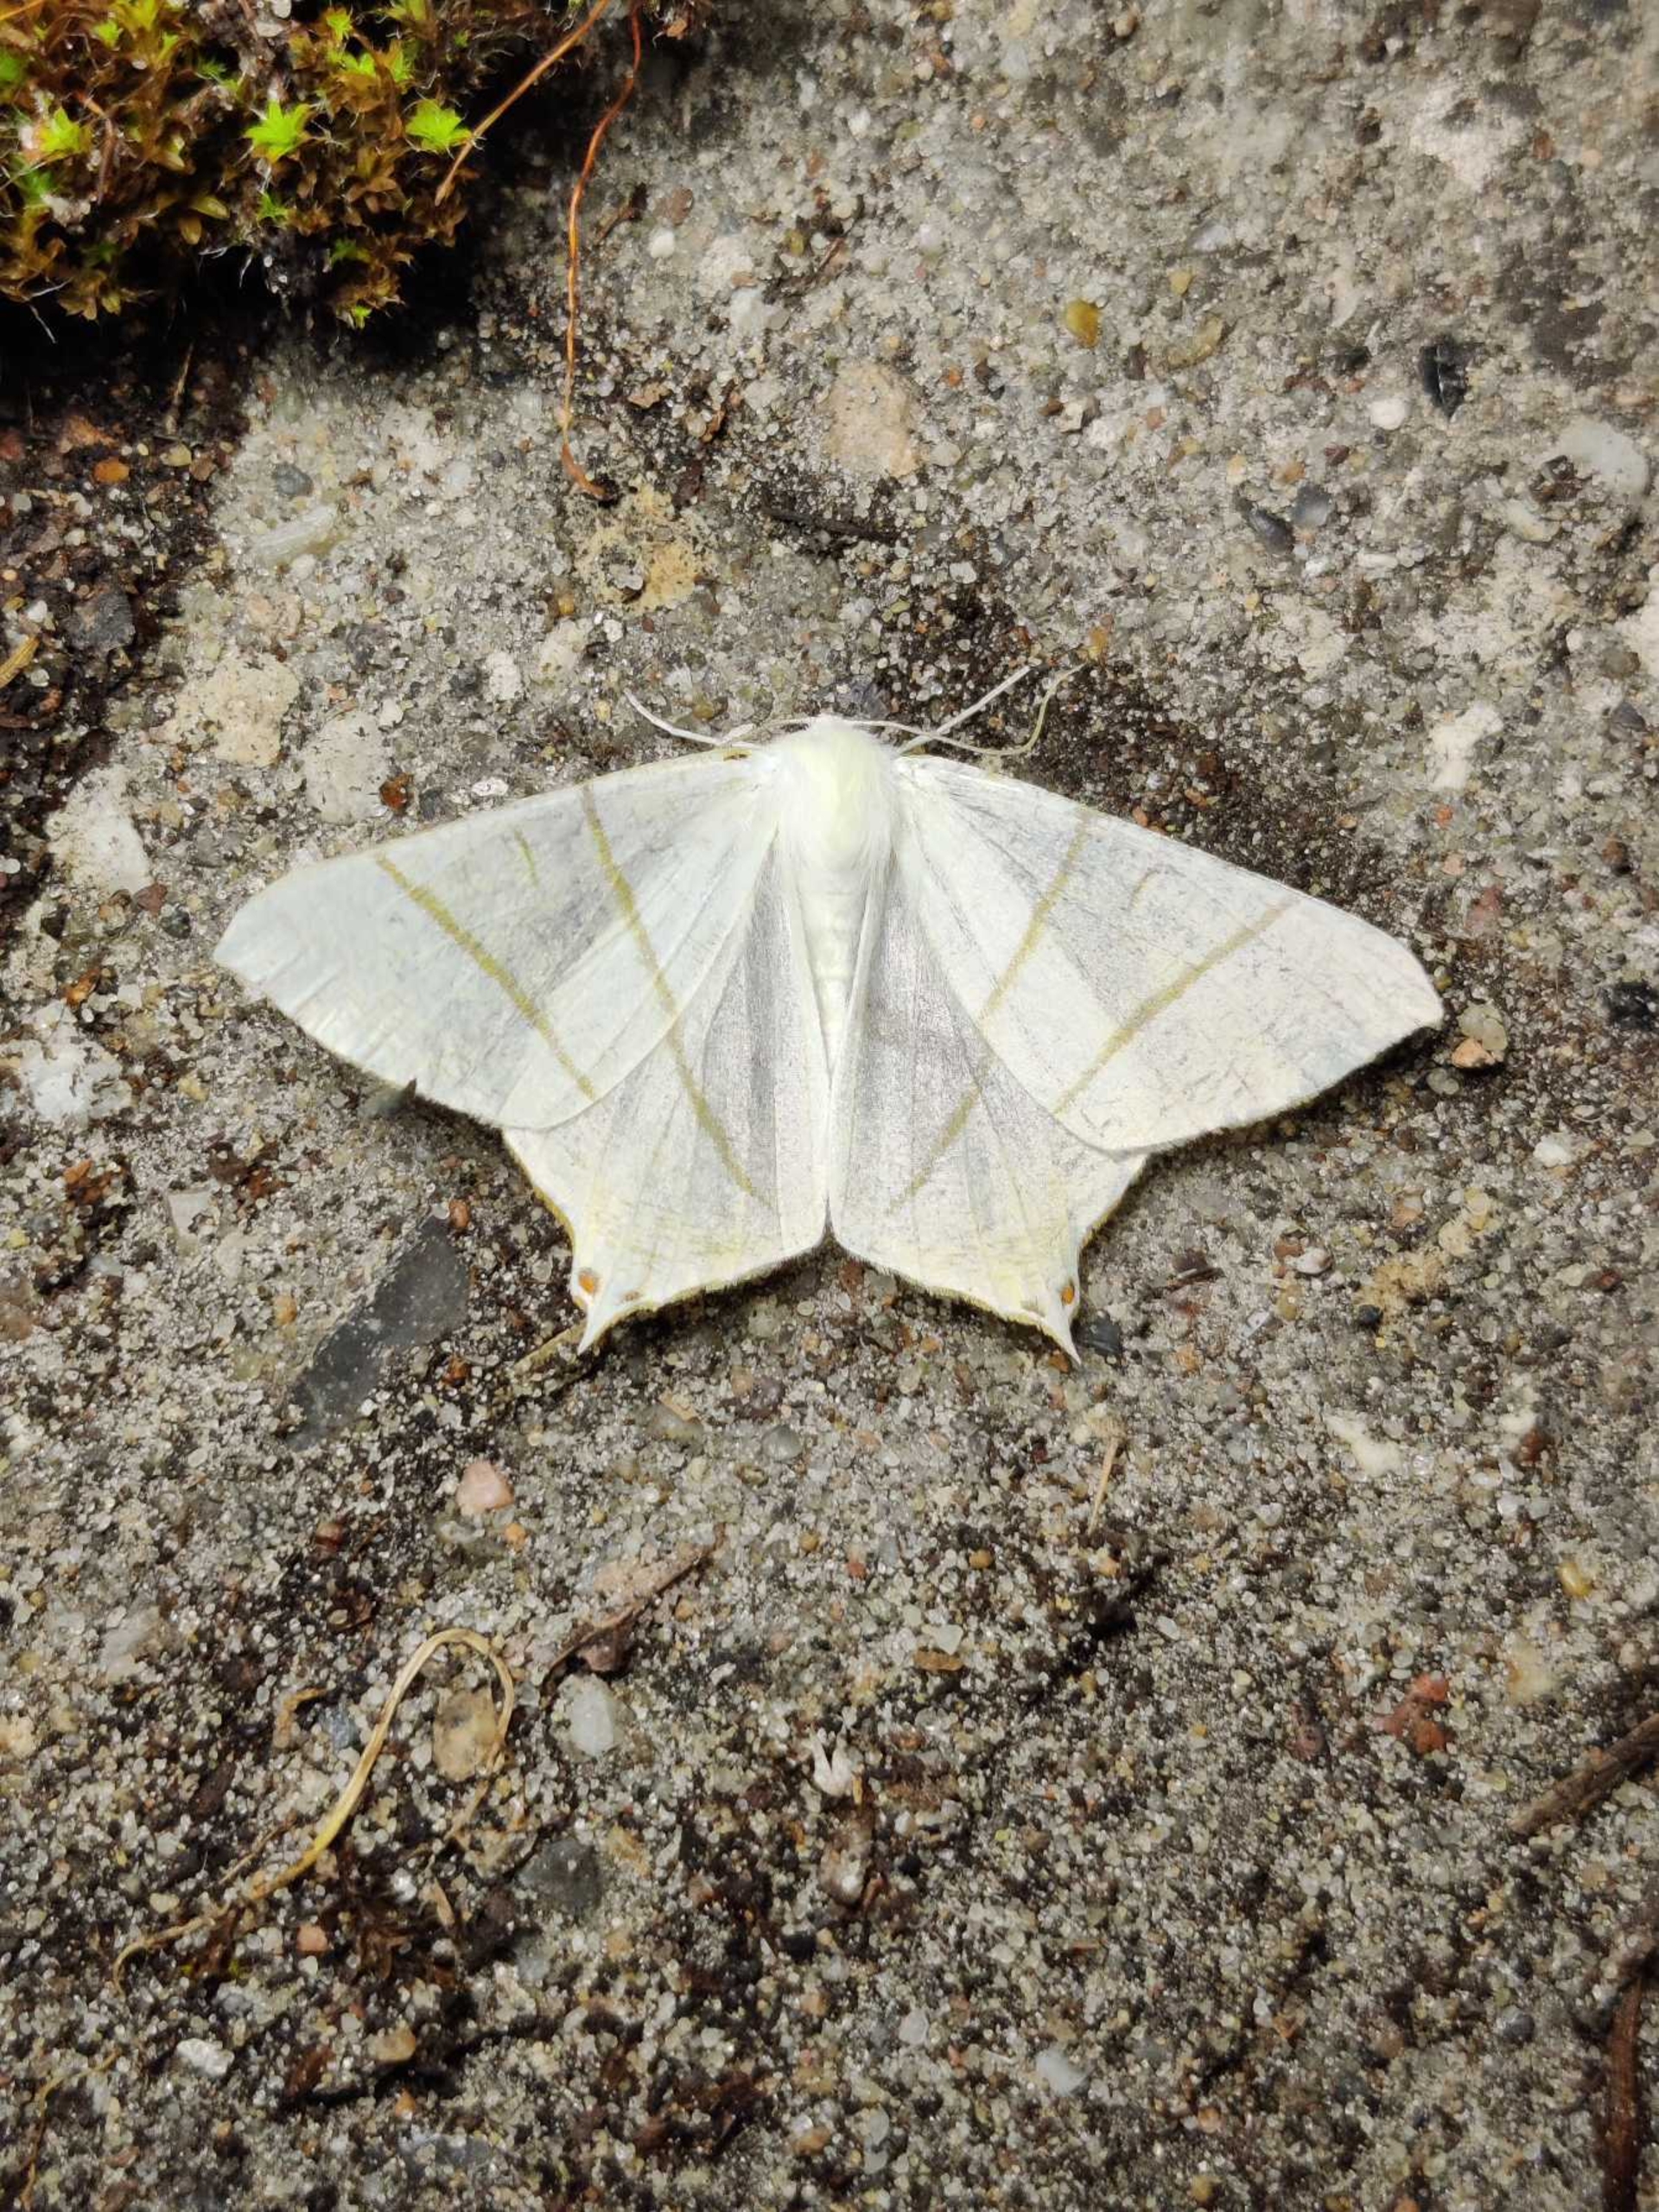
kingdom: Animalia
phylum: Arthropoda
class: Insecta
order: Lepidoptera
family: Geometridae
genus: Ourapteryx
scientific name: Ourapteryx sambucaria
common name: Natsvalehale
